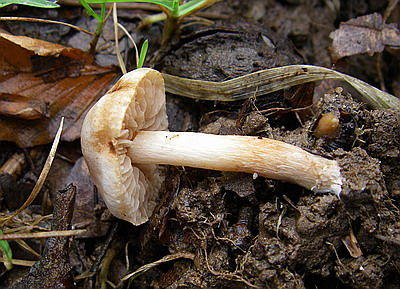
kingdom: Fungi
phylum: Basidiomycota
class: Agaricomycetes
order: Agaricales
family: Hymenogastraceae
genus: Hebeloma
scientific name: Hebeloma sacchariolens
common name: sødtduftende tåreblad
